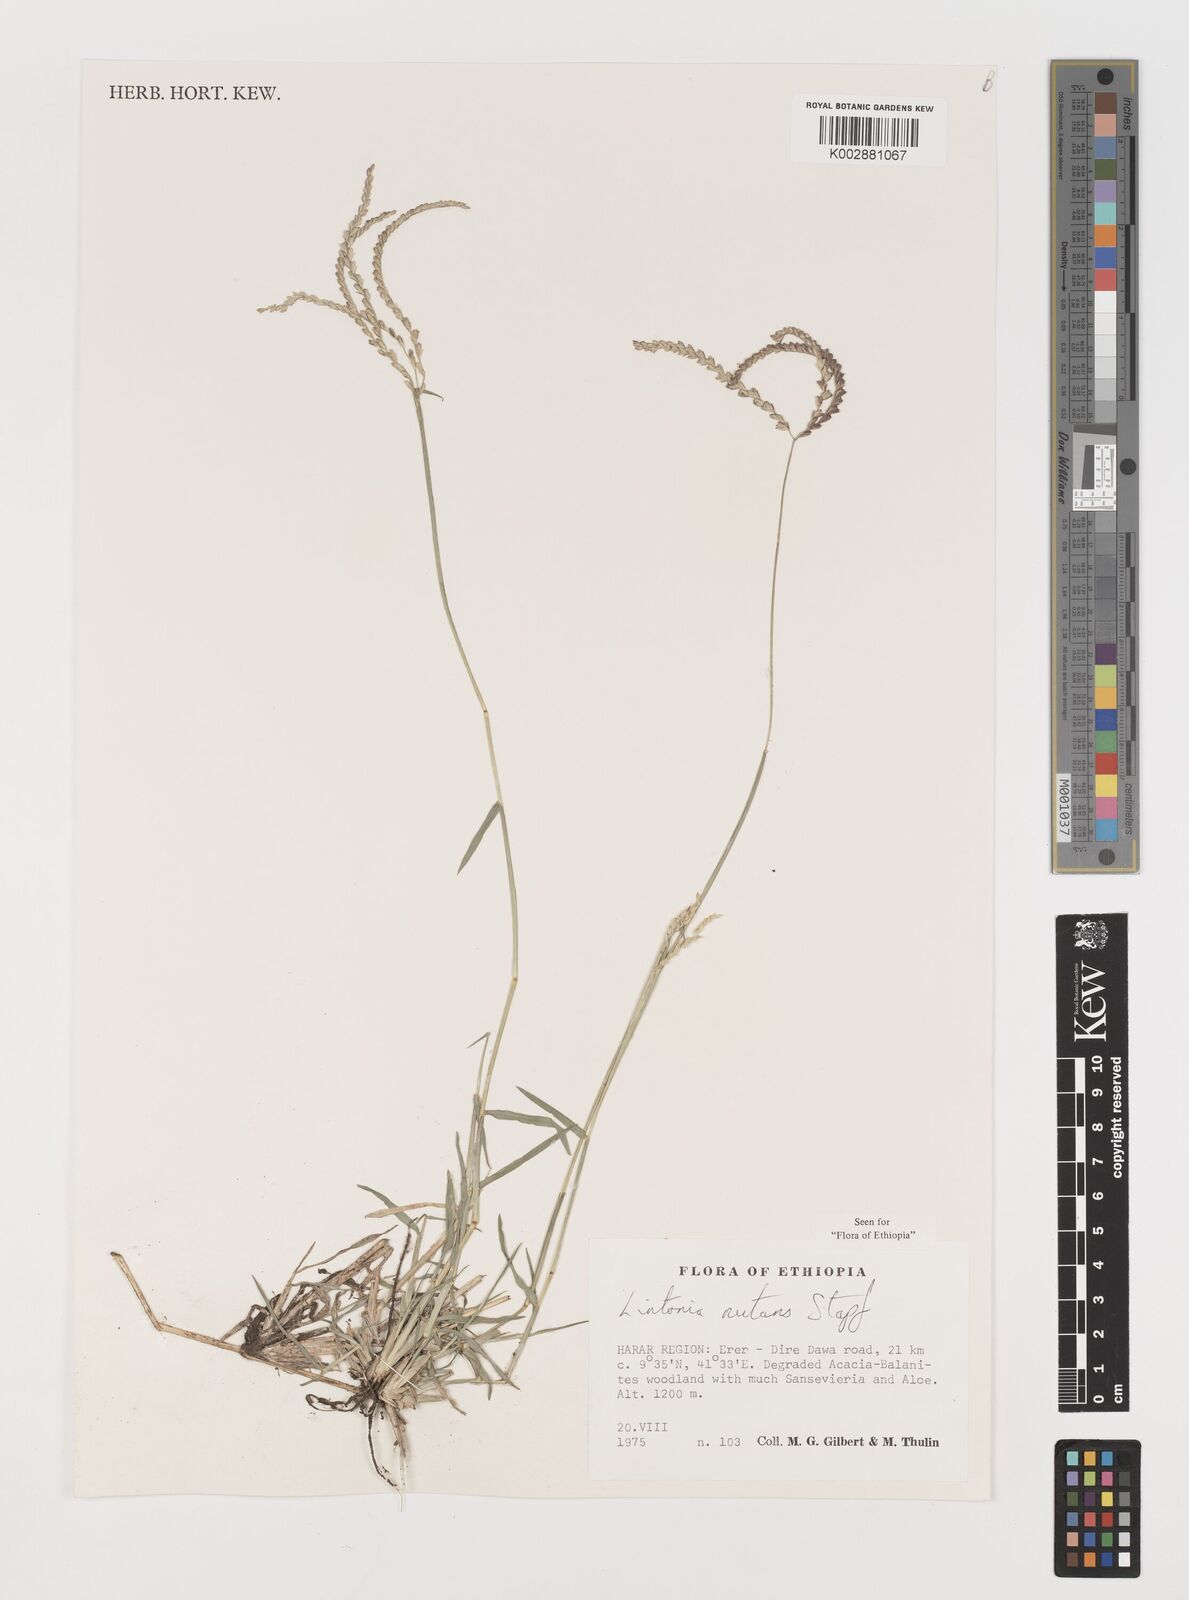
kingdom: Plantae
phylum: Tracheophyta
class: Liliopsida
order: Poales
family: Poaceae
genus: Chloris
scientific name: Chloris nutans
